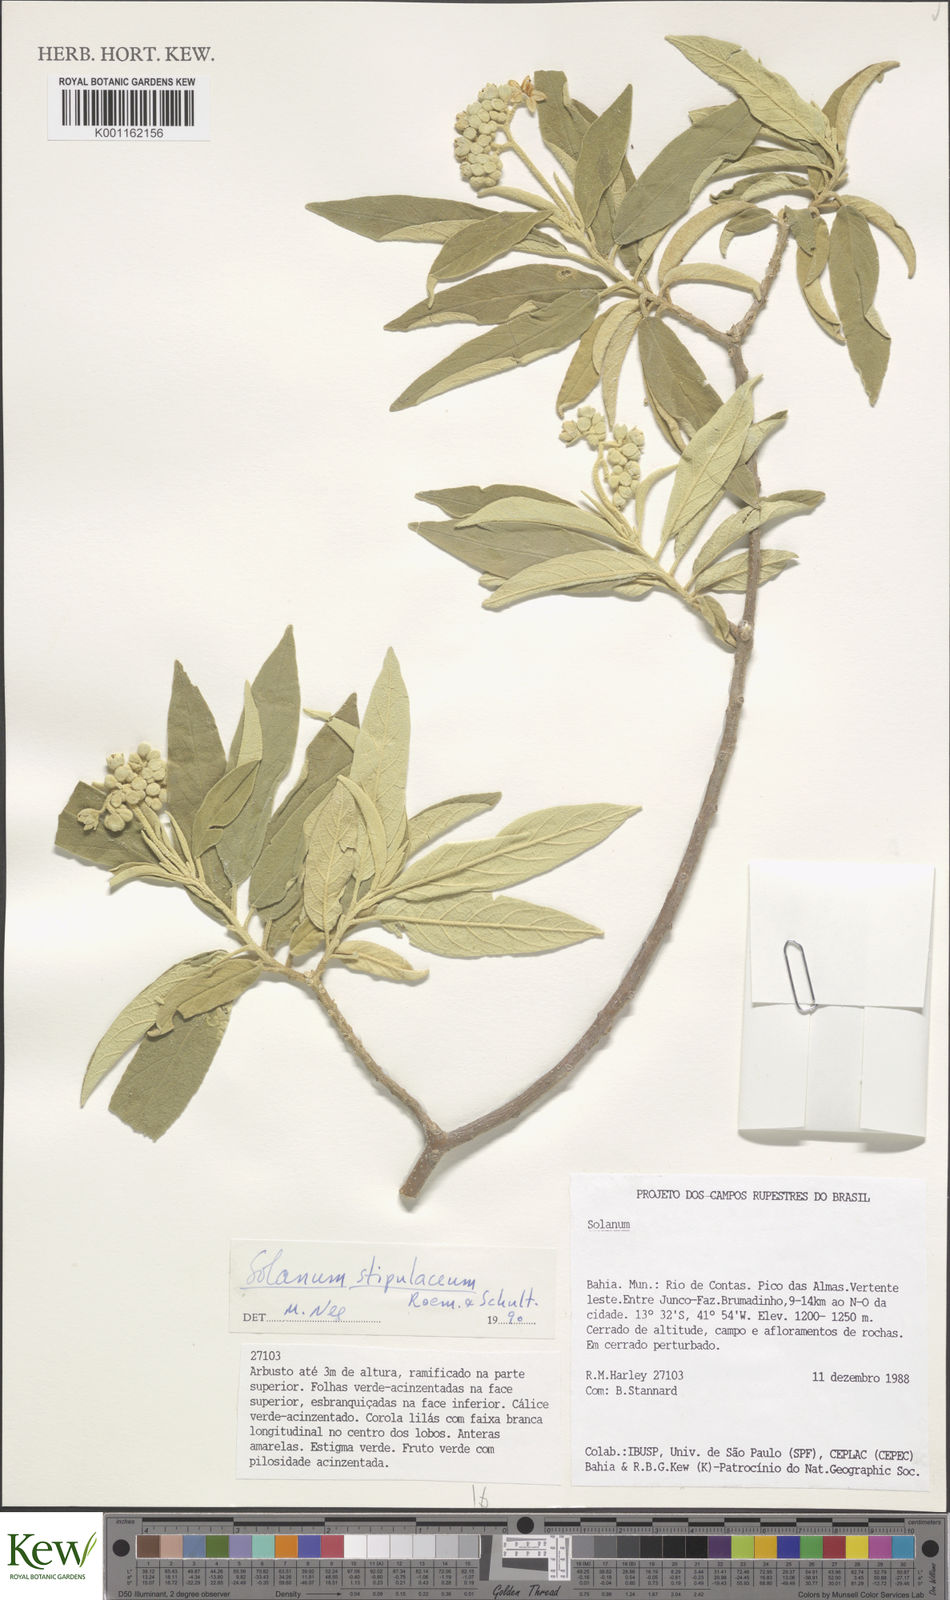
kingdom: Plantae
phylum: Tracheophyta
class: Magnoliopsida
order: Solanales
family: Solanaceae
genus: Solanum
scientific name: Solanum stipulaceum
